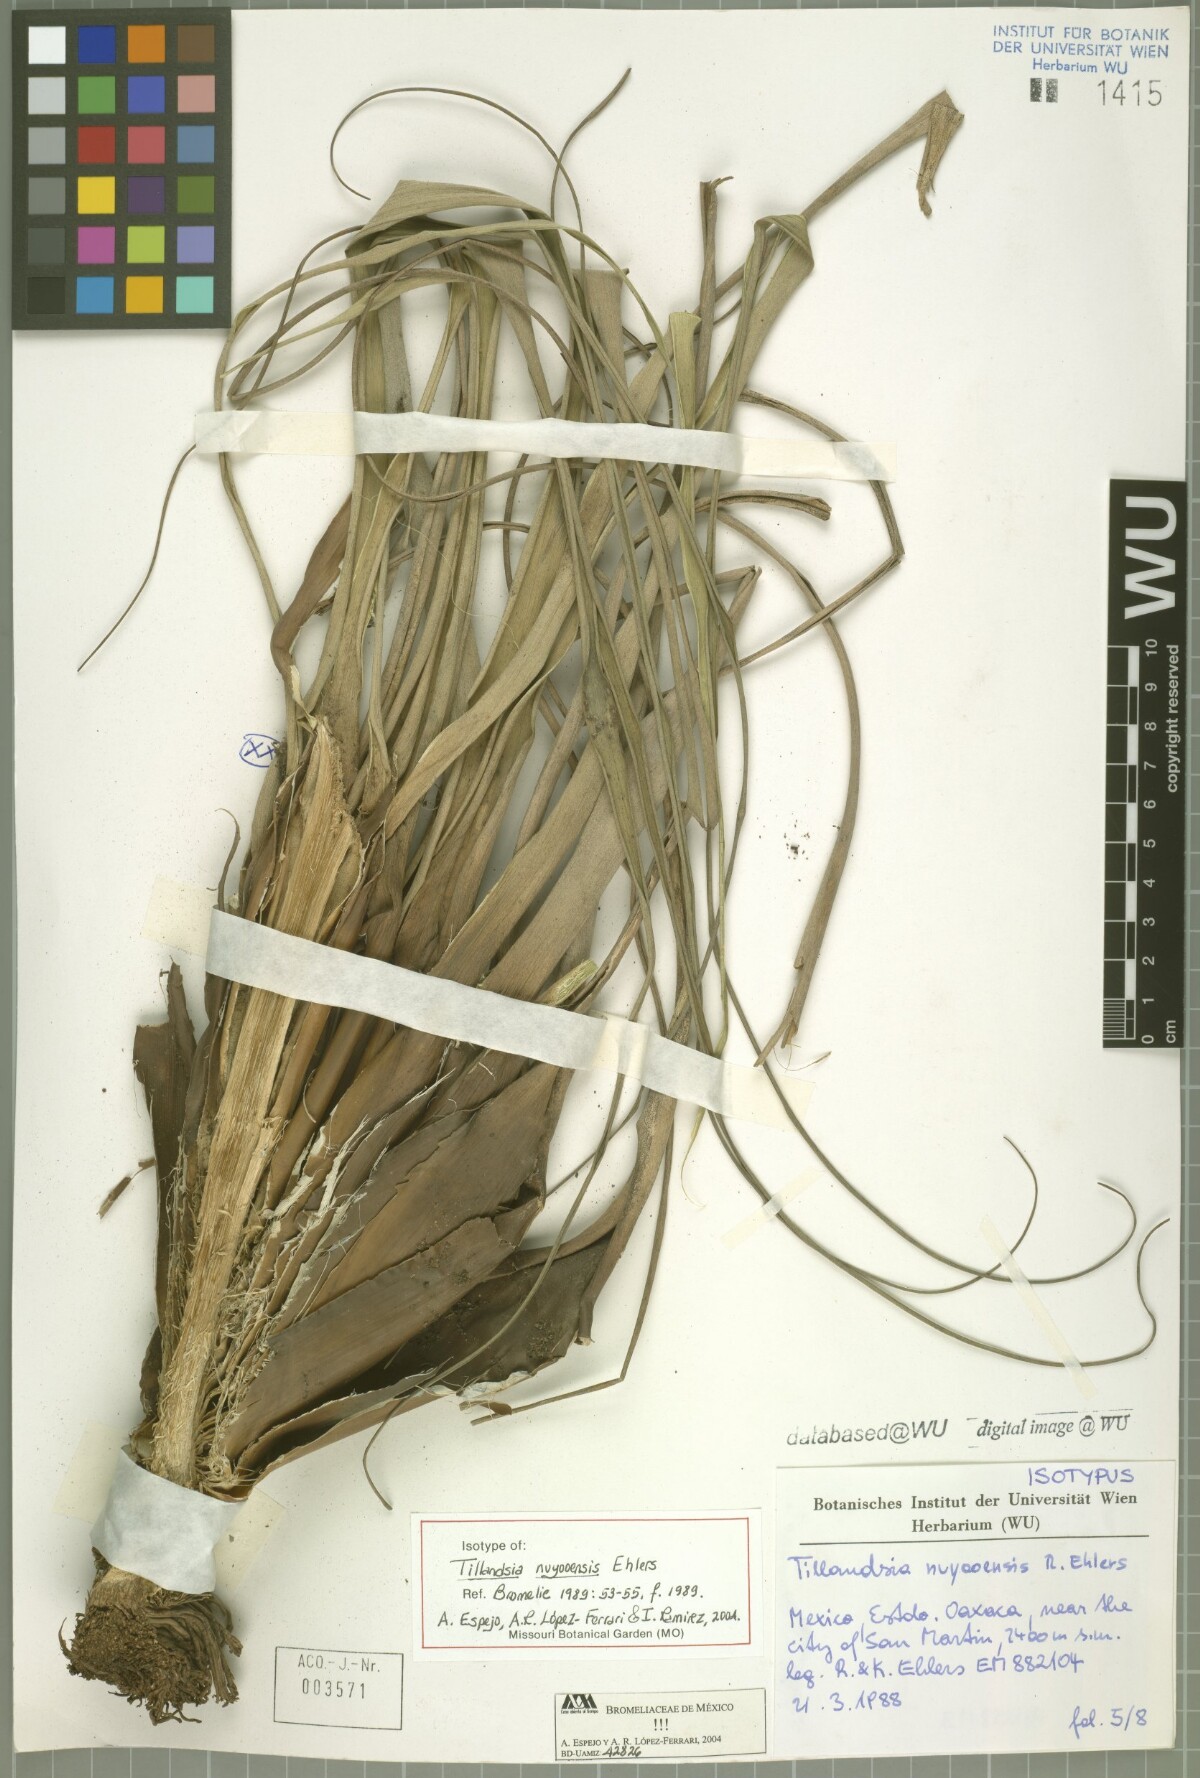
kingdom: Plantae
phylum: Tracheophyta
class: Liliopsida
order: Poales
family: Bromeliaceae
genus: Tillandsia
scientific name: Tillandsia nuyooensis
